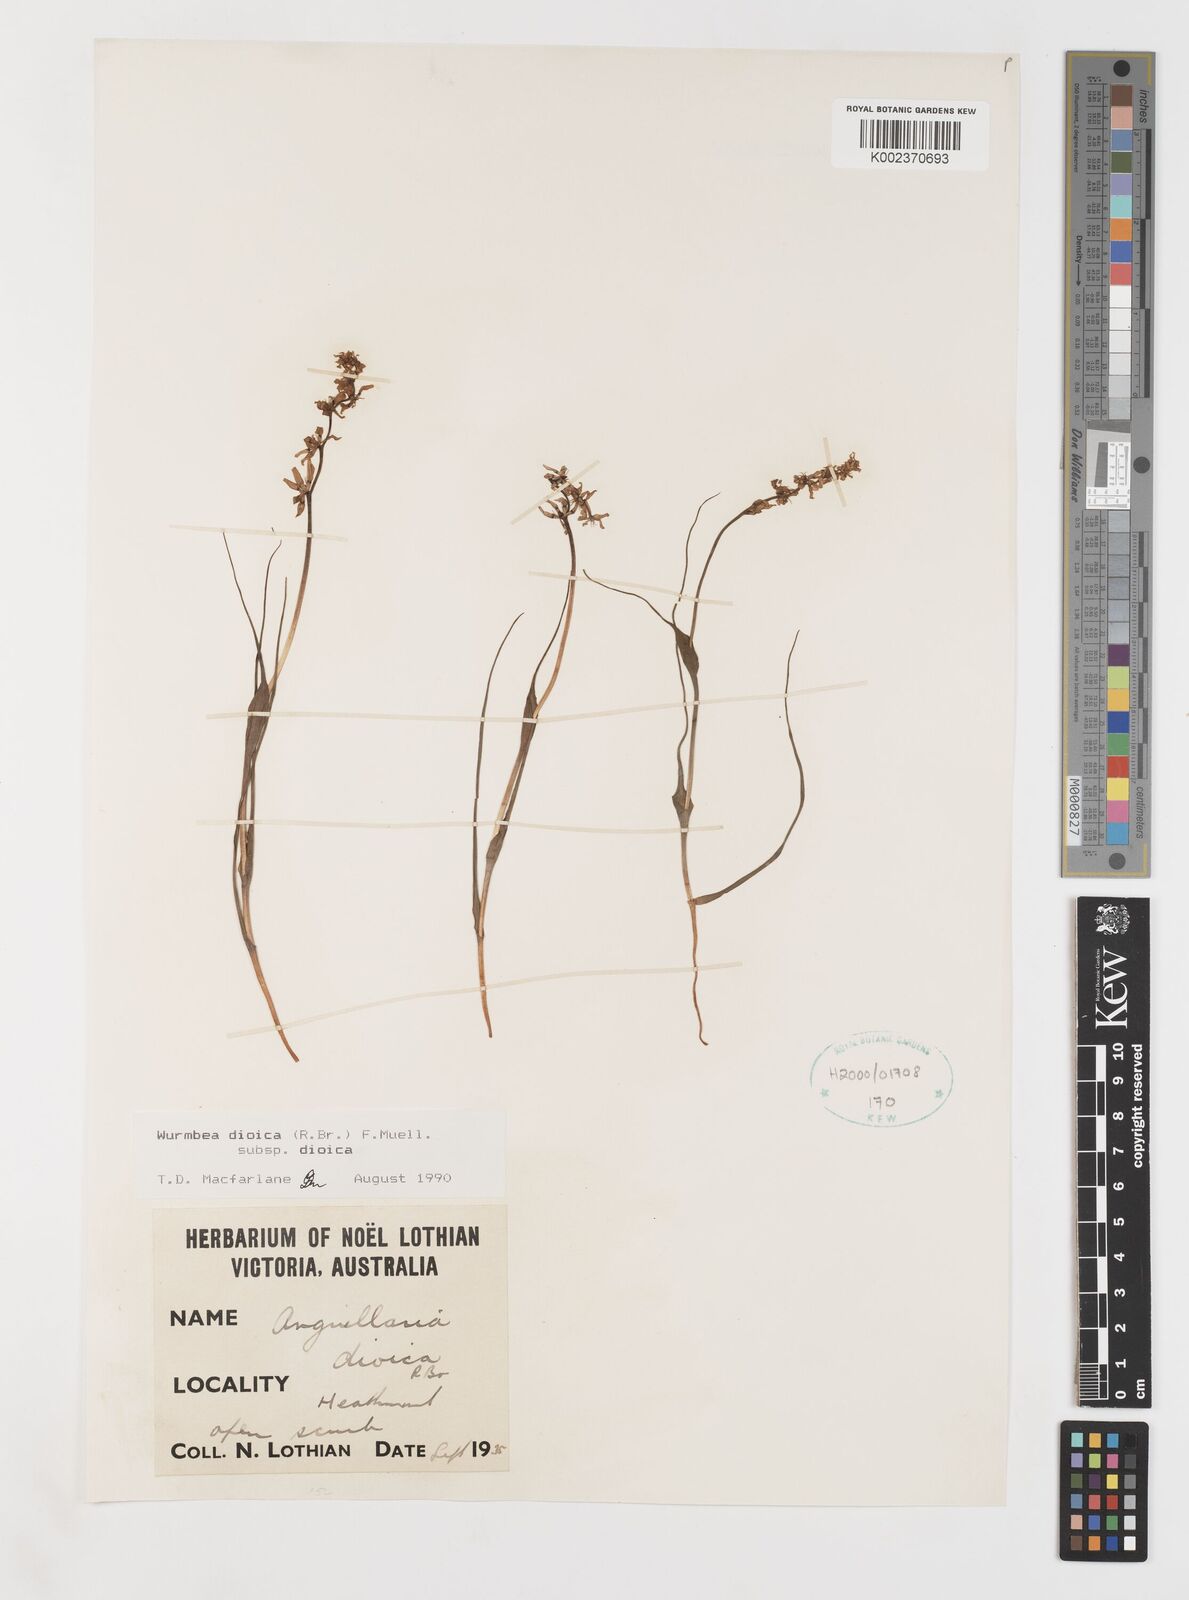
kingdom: Plantae
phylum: Tracheophyta
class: Liliopsida
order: Liliales
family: Colchicaceae
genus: Wurmbea
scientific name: Wurmbea dioica
